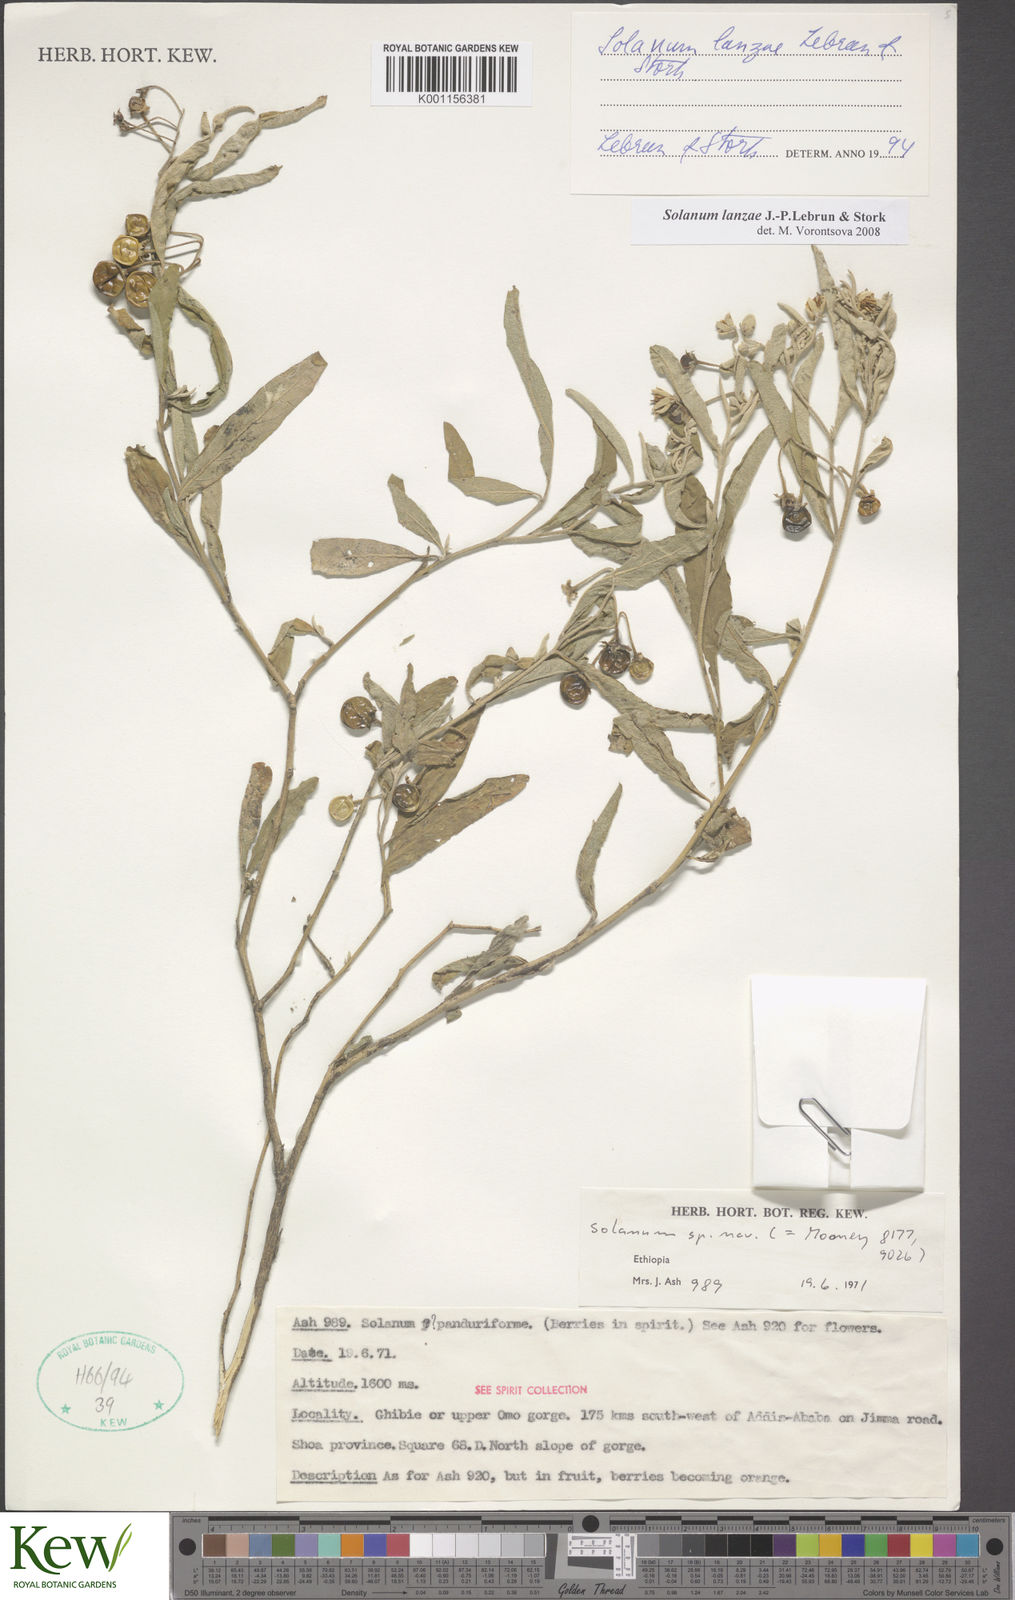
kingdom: Plantae
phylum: Tracheophyta
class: Magnoliopsida
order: Solanales
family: Solanaceae
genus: Solanum
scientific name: Solanum lanzae
